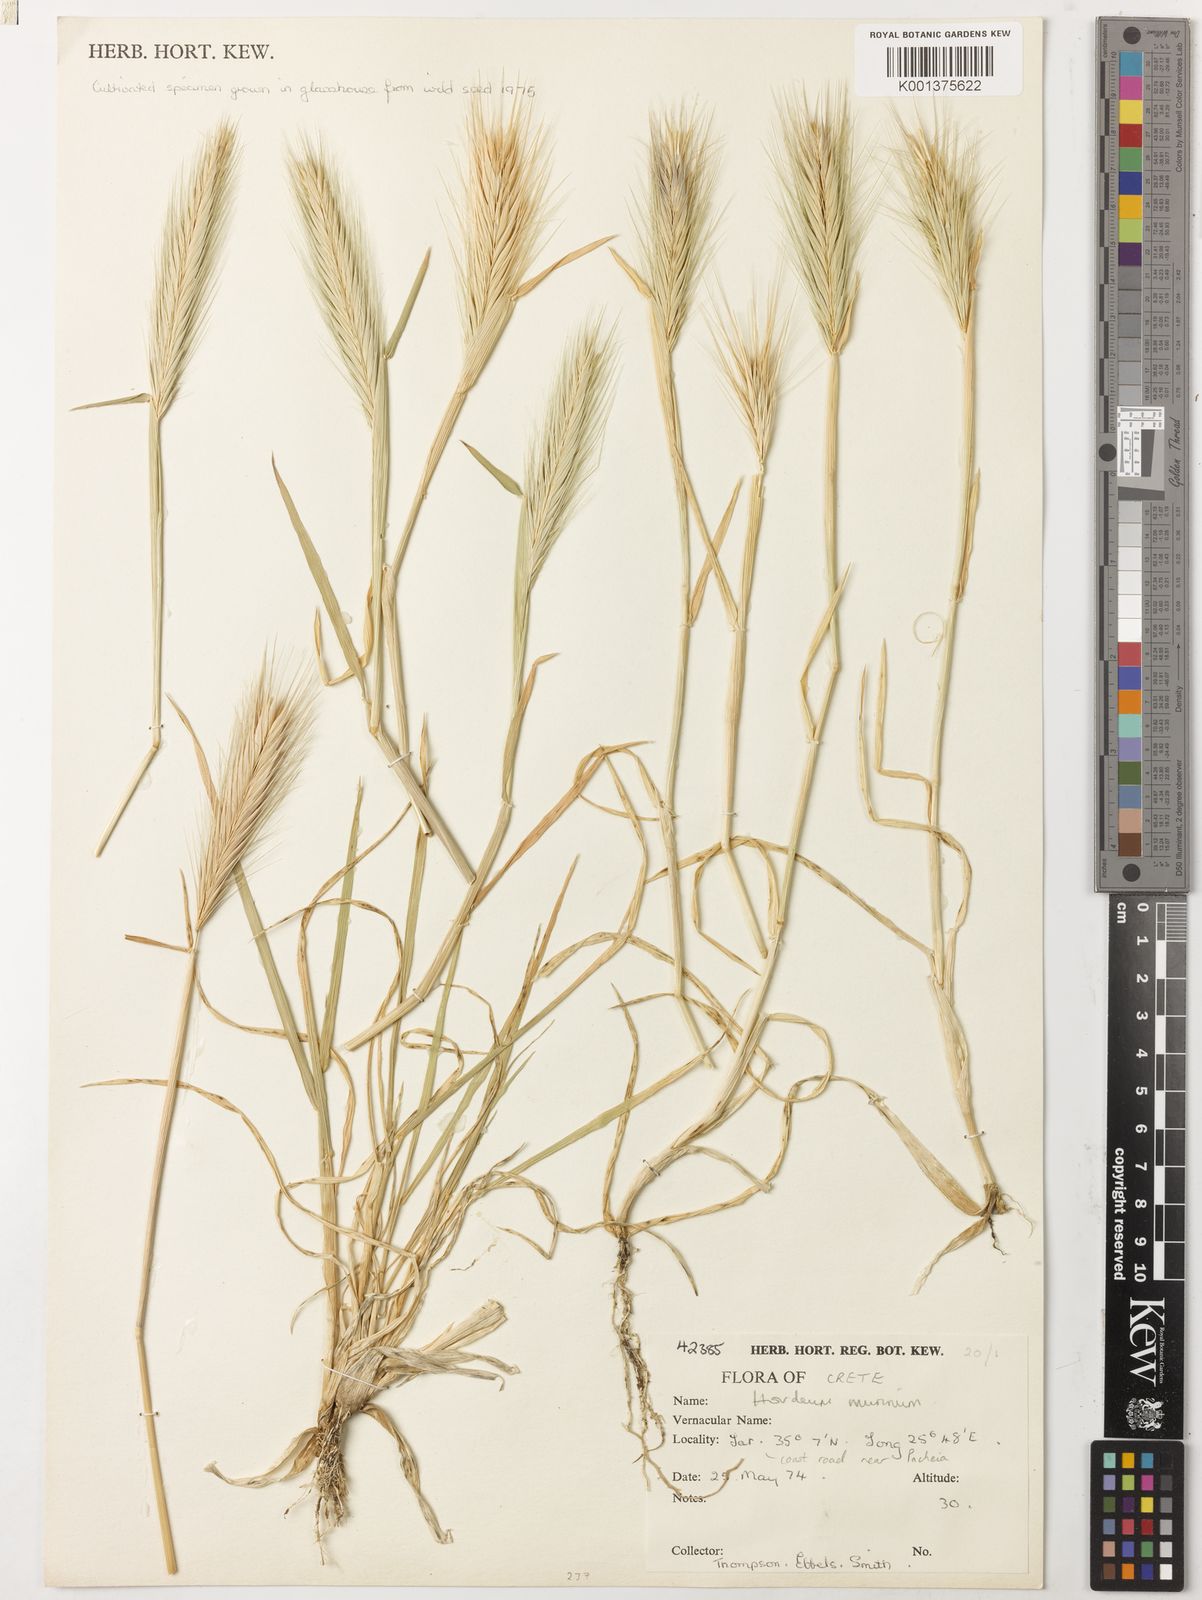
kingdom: Plantae
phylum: Tracheophyta
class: Liliopsida
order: Poales
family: Poaceae
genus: Hordeum
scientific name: Hordeum murinum
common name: Wall barley
